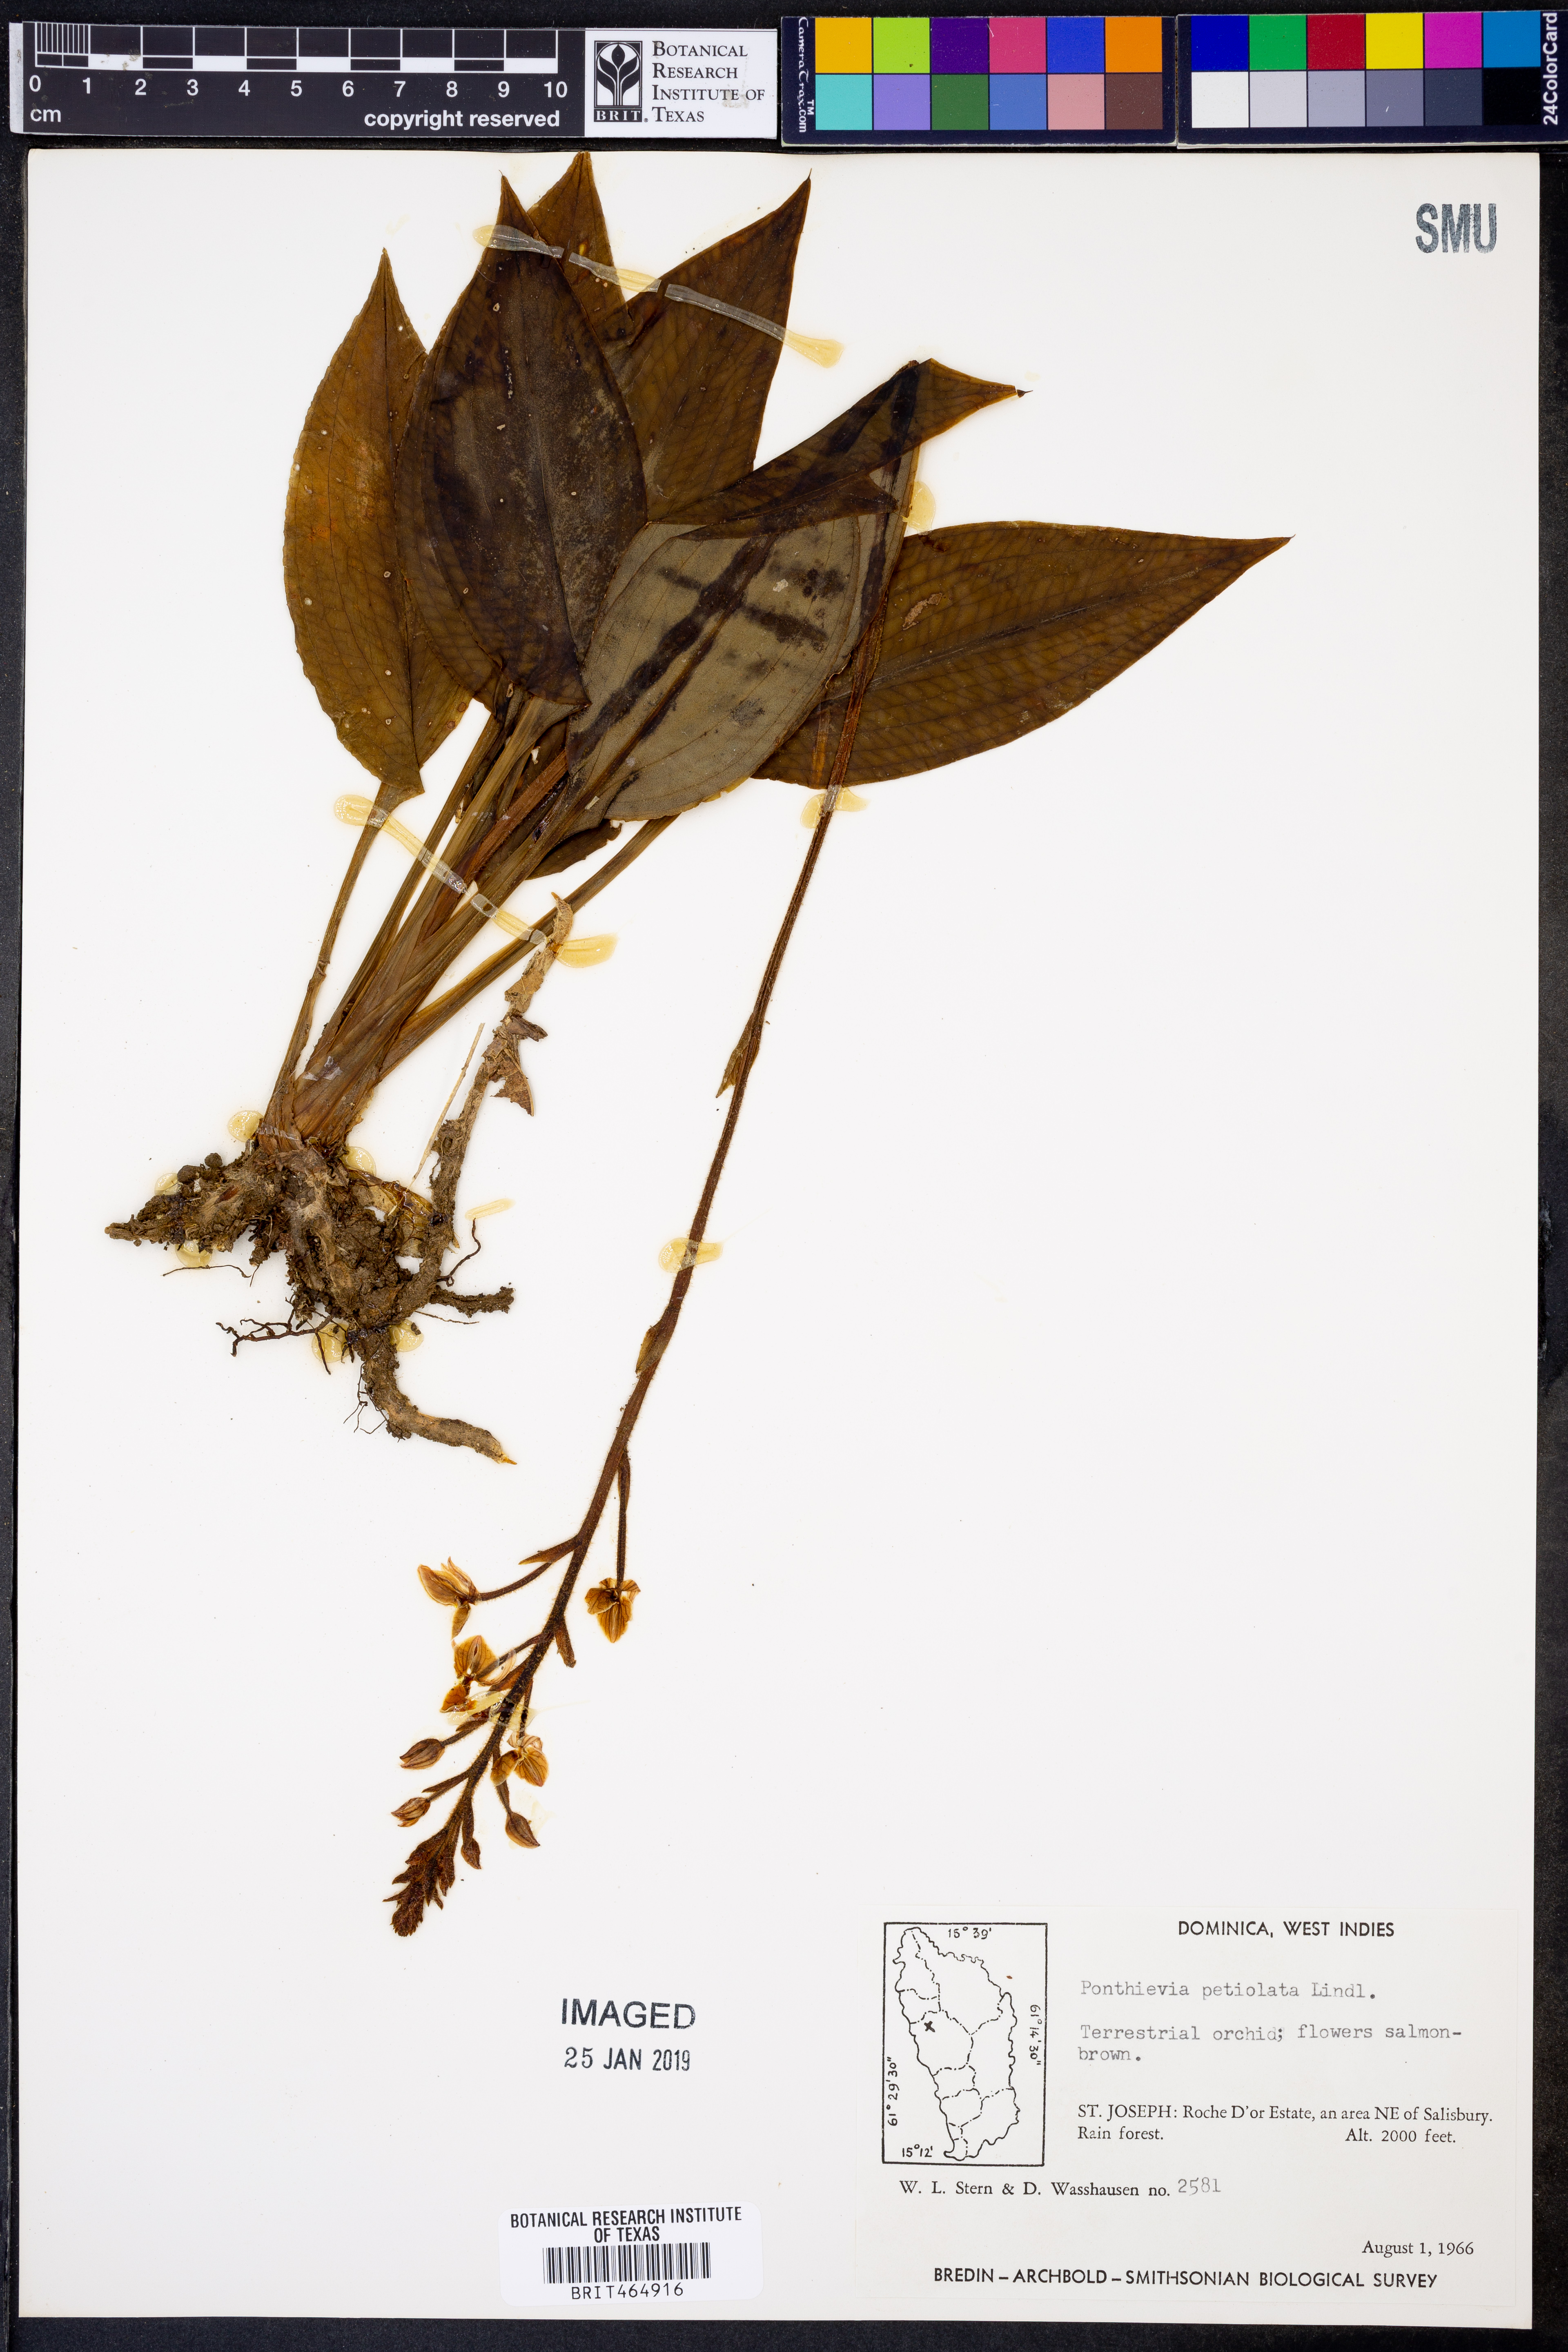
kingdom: Plantae
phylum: Tracheophyta
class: Liliopsida
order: Asparagales
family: Orchidaceae
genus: Ponthieva
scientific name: Ponthieva petiolata
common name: Shadow witch
